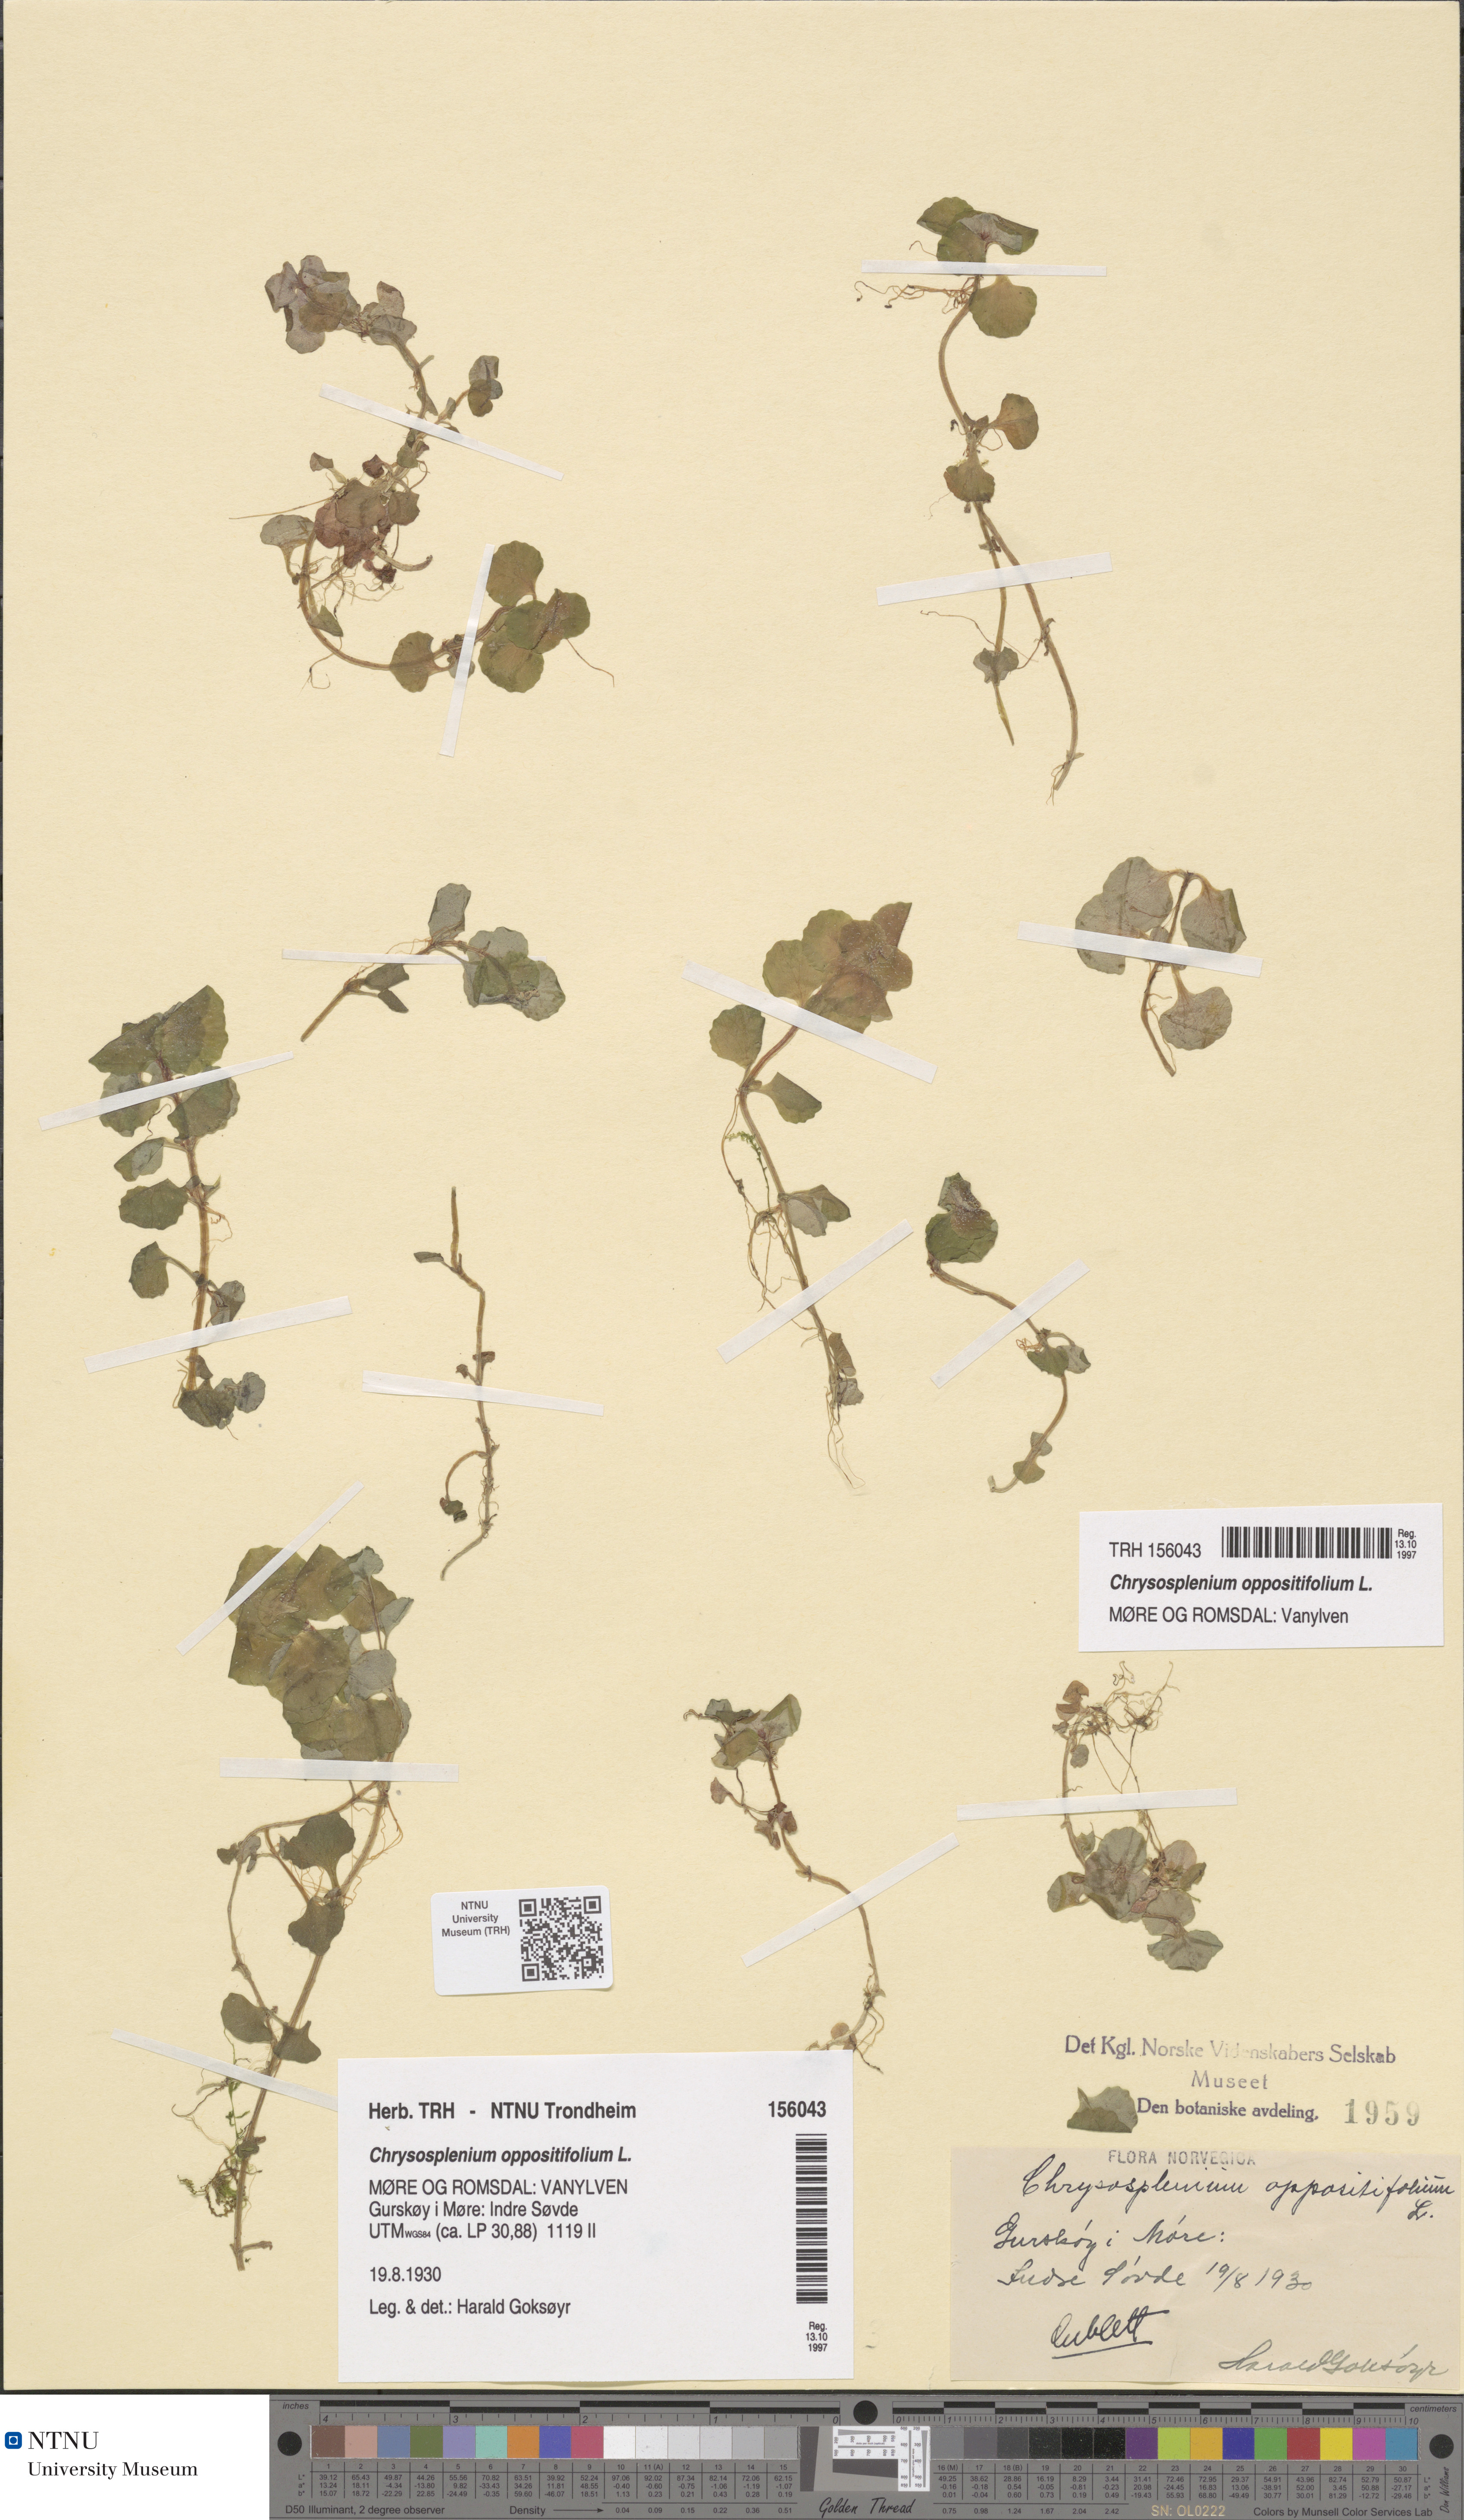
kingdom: Plantae
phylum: Tracheophyta
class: Magnoliopsida
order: Saxifragales
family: Saxifragaceae
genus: Chrysosplenium
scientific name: Chrysosplenium oppositifolium
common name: Opposite-leaved golden-saxifrage
